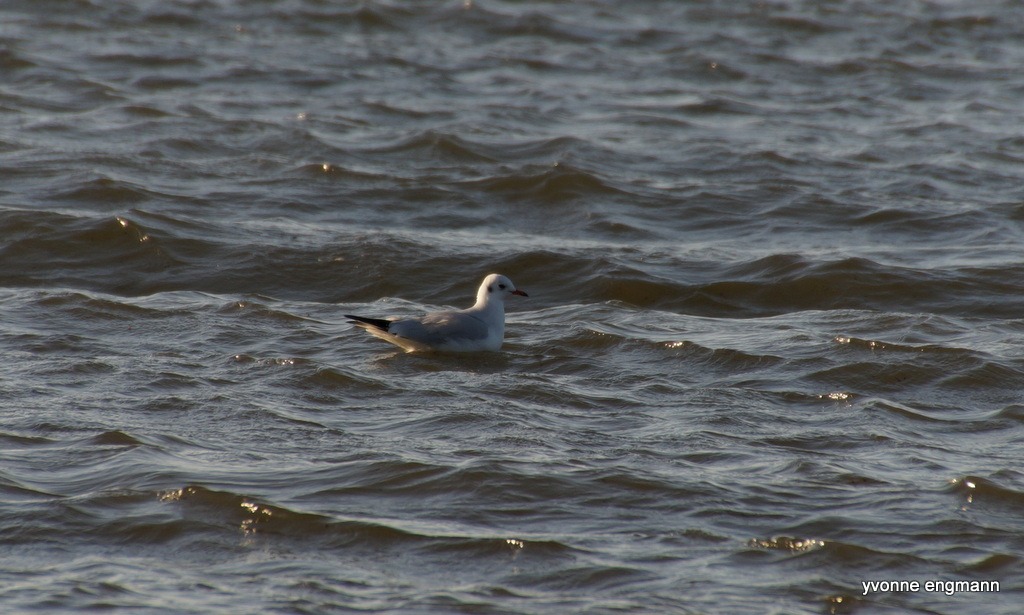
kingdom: Animalia
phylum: Chordata
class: Aves
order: Charadriiformes
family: Laridae
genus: Chroicocephalus
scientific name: Chroicocephalus ridibundus
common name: Hættemåge
